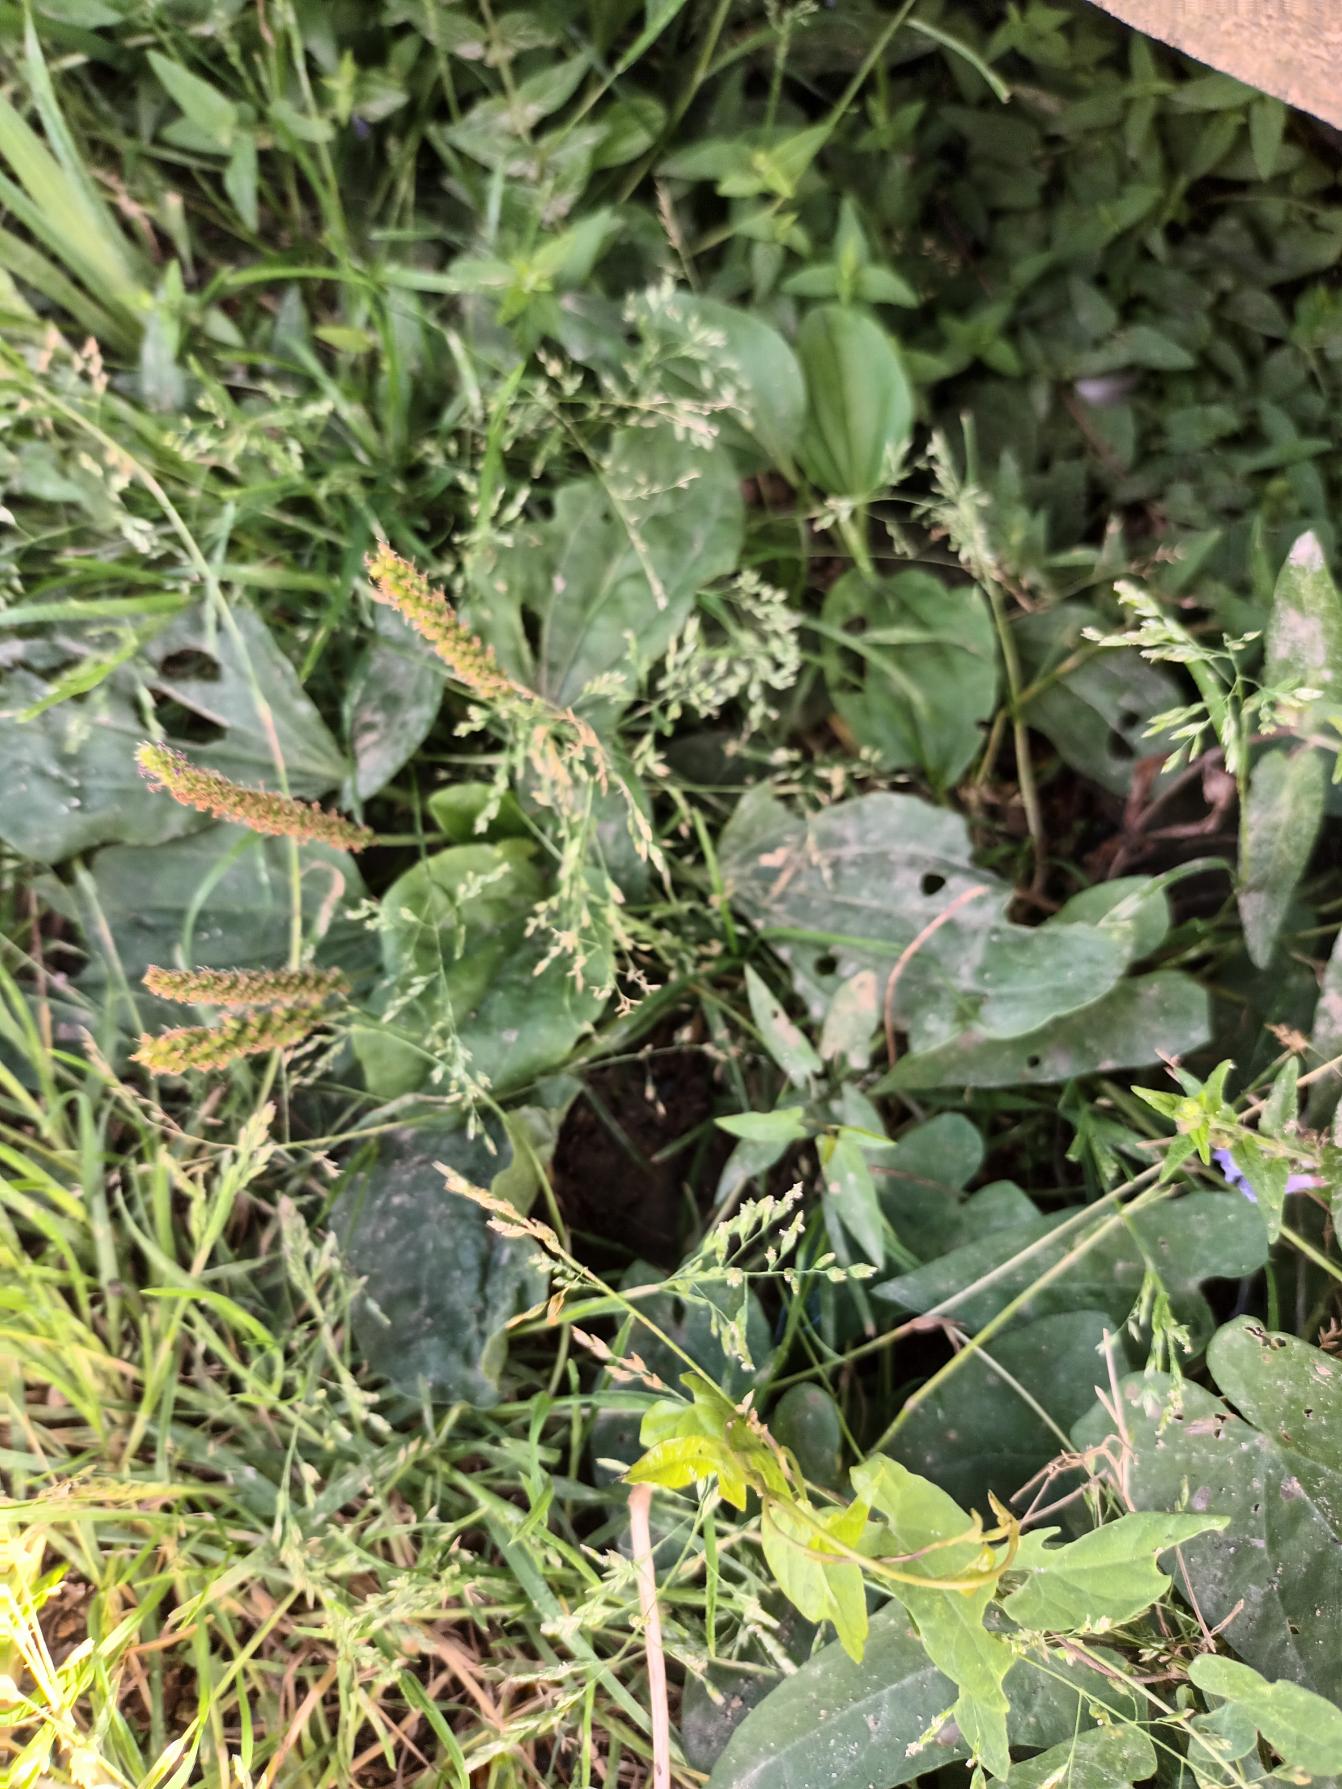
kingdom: Plantae
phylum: Tracheophyta
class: Liliopsida
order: Poales
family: Poaceae
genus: Poa
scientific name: Poa annua
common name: Enårig rapgræs
